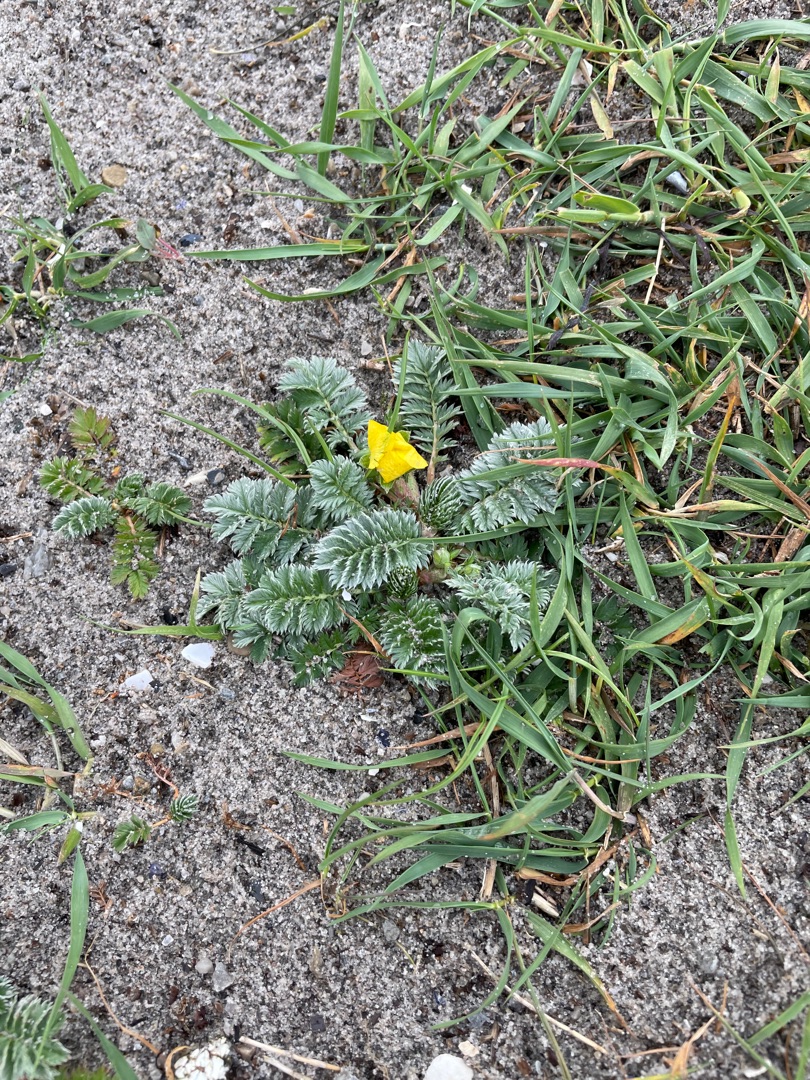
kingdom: Plantae
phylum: Tracheophyta
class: Magnoliopsida
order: Rosales
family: Rosaceae
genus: Argentina
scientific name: Argentina anserina
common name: Gåsepotentil
